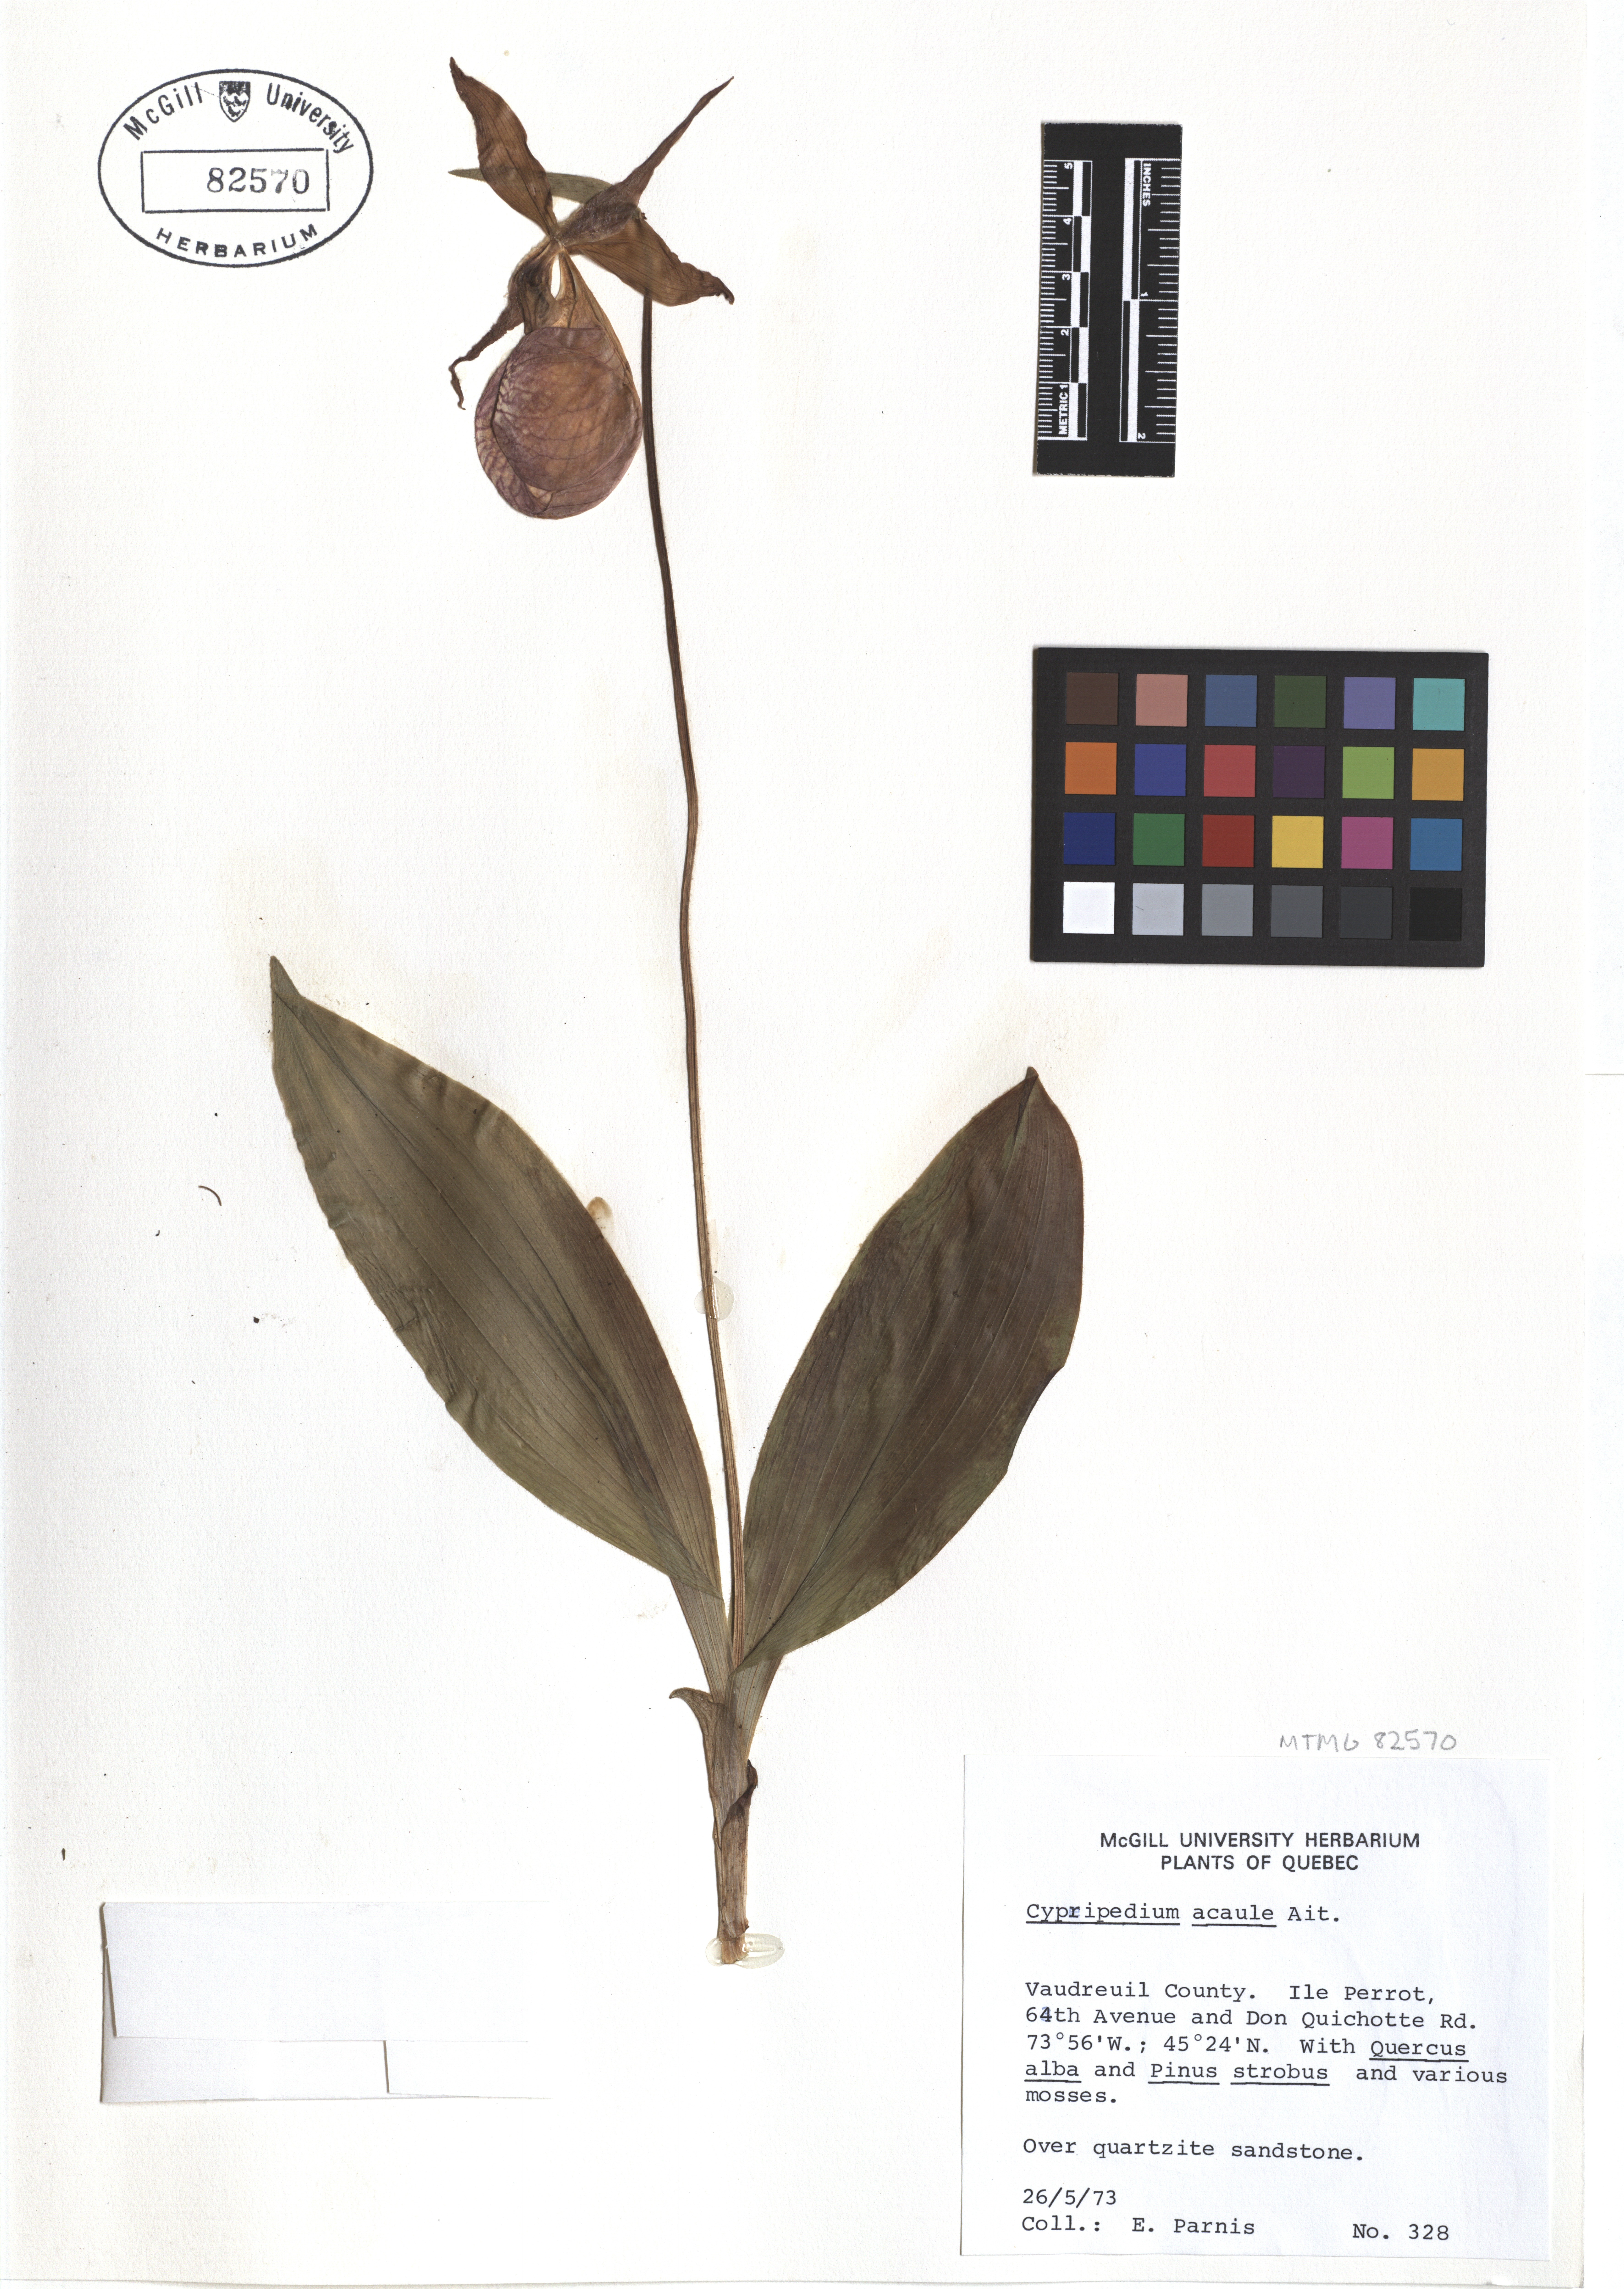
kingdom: Plantae
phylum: Tracheophyta
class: Liliopsida
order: Asparagales
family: Orchidaceae
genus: Cypripedium
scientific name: Cypripedium acaule
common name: Pink lady's-slipper
